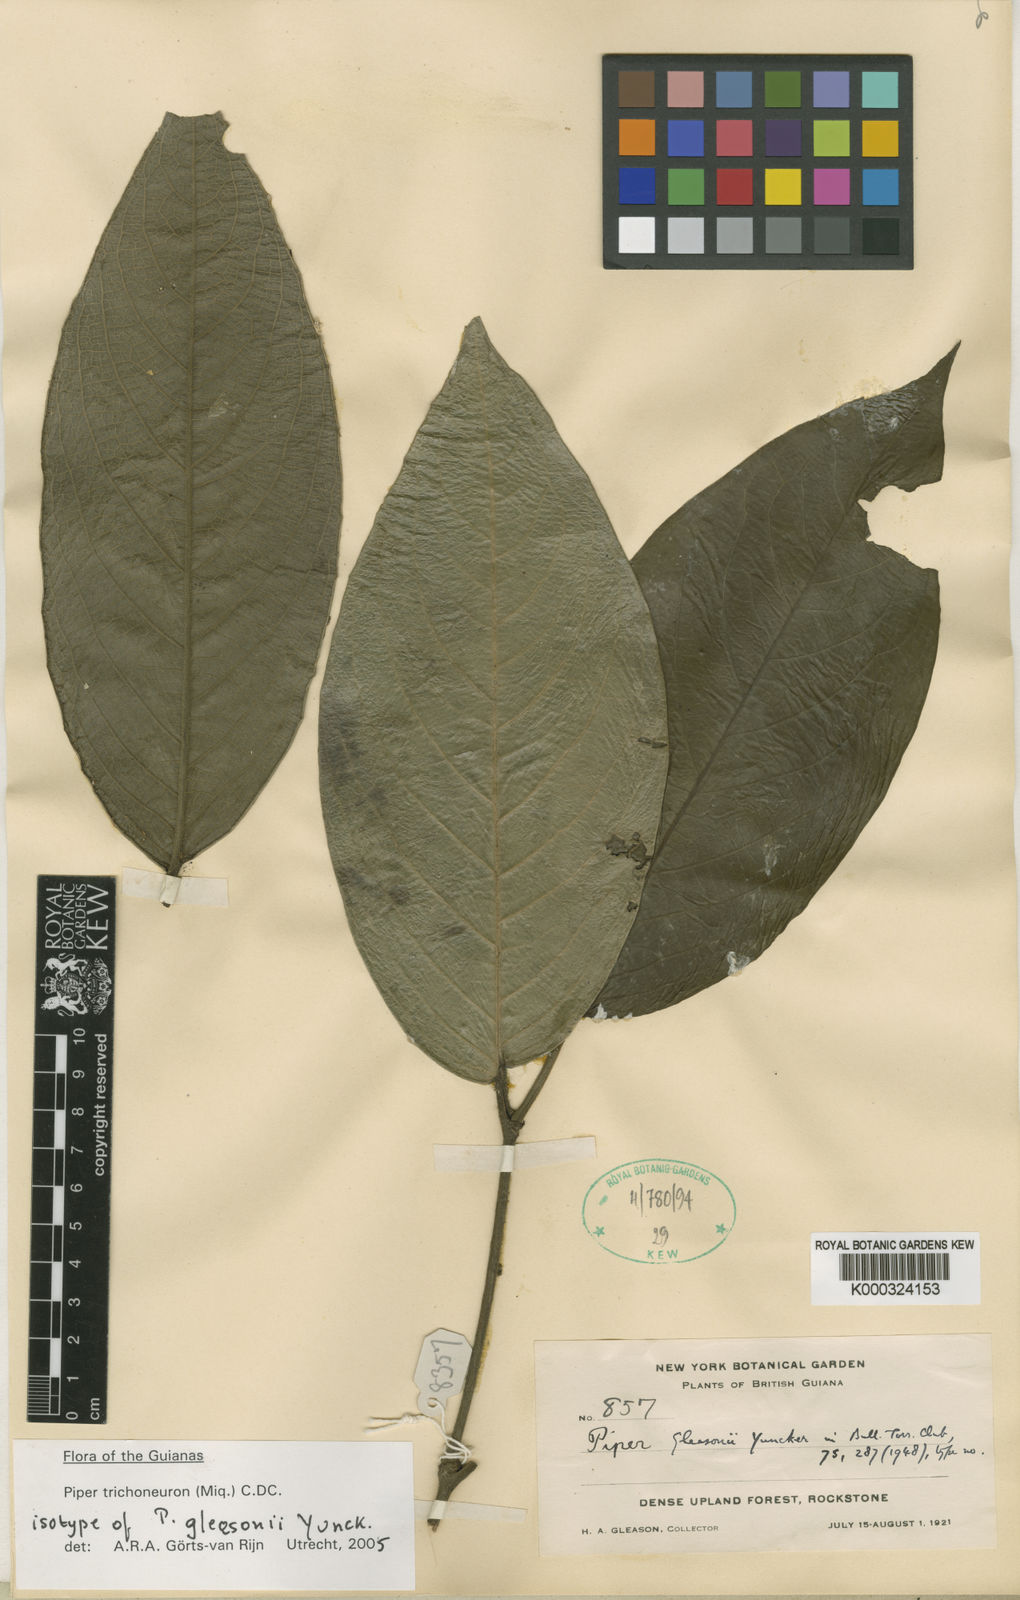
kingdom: Plantae
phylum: Tracheophyta
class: Magnoliopsida
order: Piperales
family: Piperaceae
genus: Piper
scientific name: Piper trichoneuron
